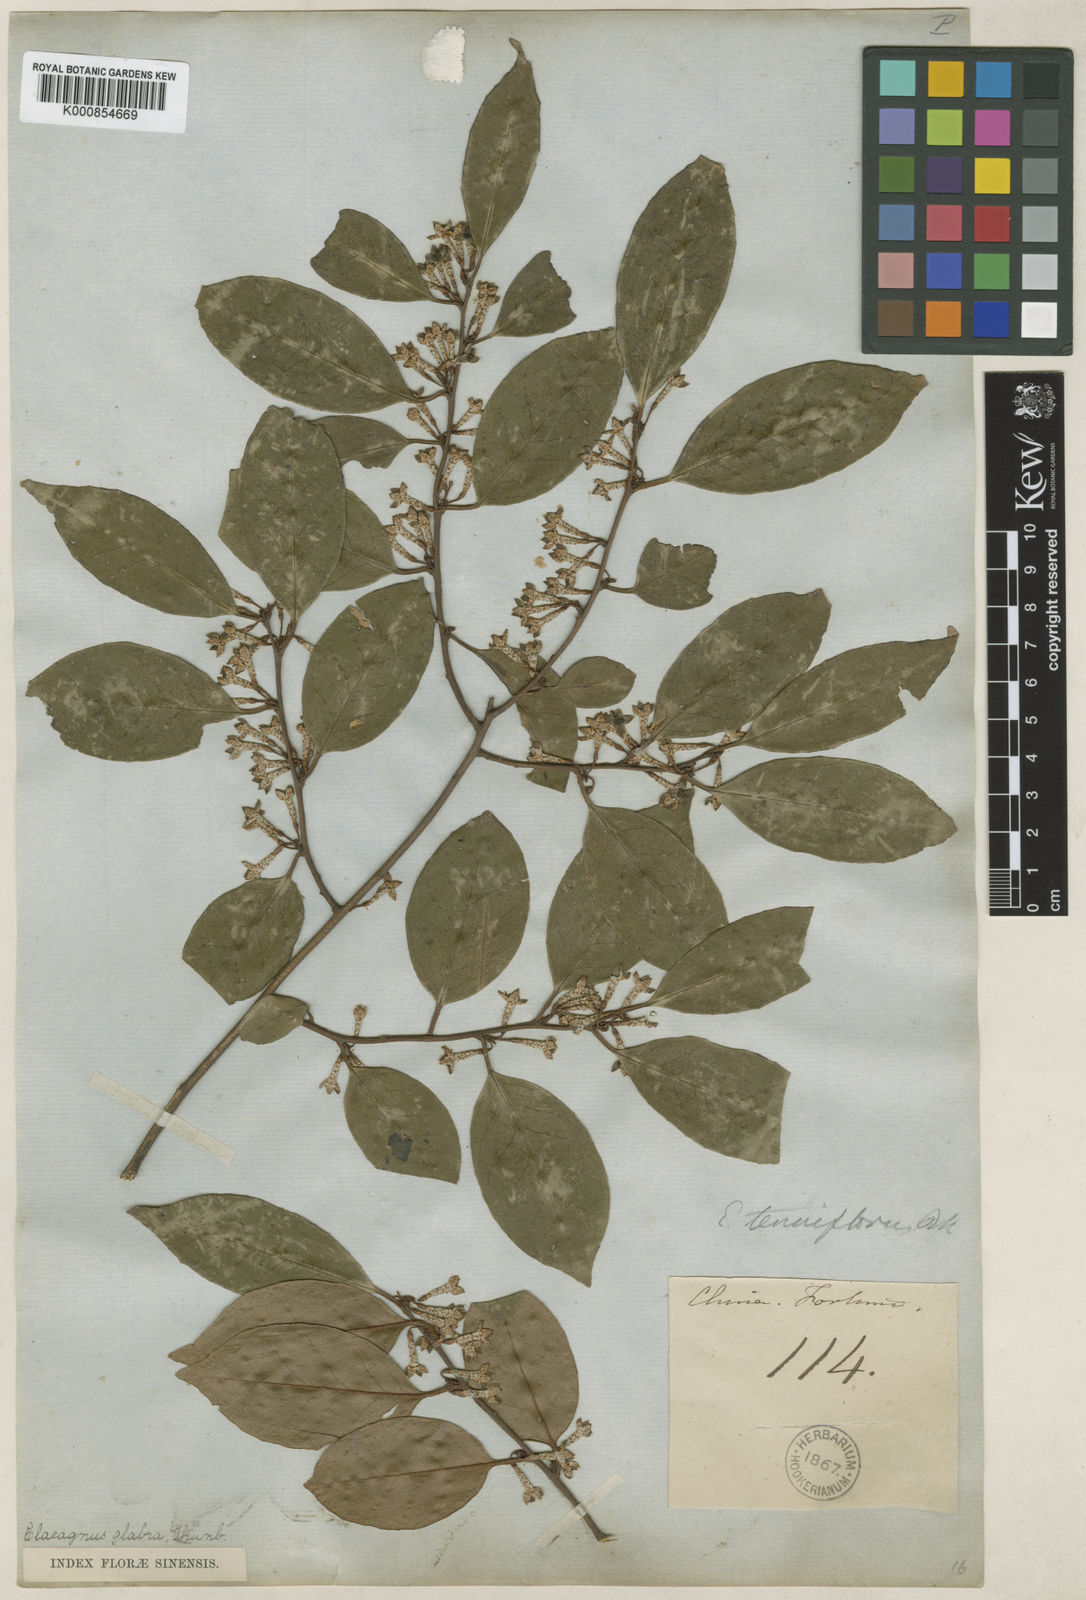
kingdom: Plantae
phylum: Tracheophyta
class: Magnoliopsida
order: Rosales
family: Elaeagnaceae
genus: Elaeagnus
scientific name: Elaeagnus glabra
